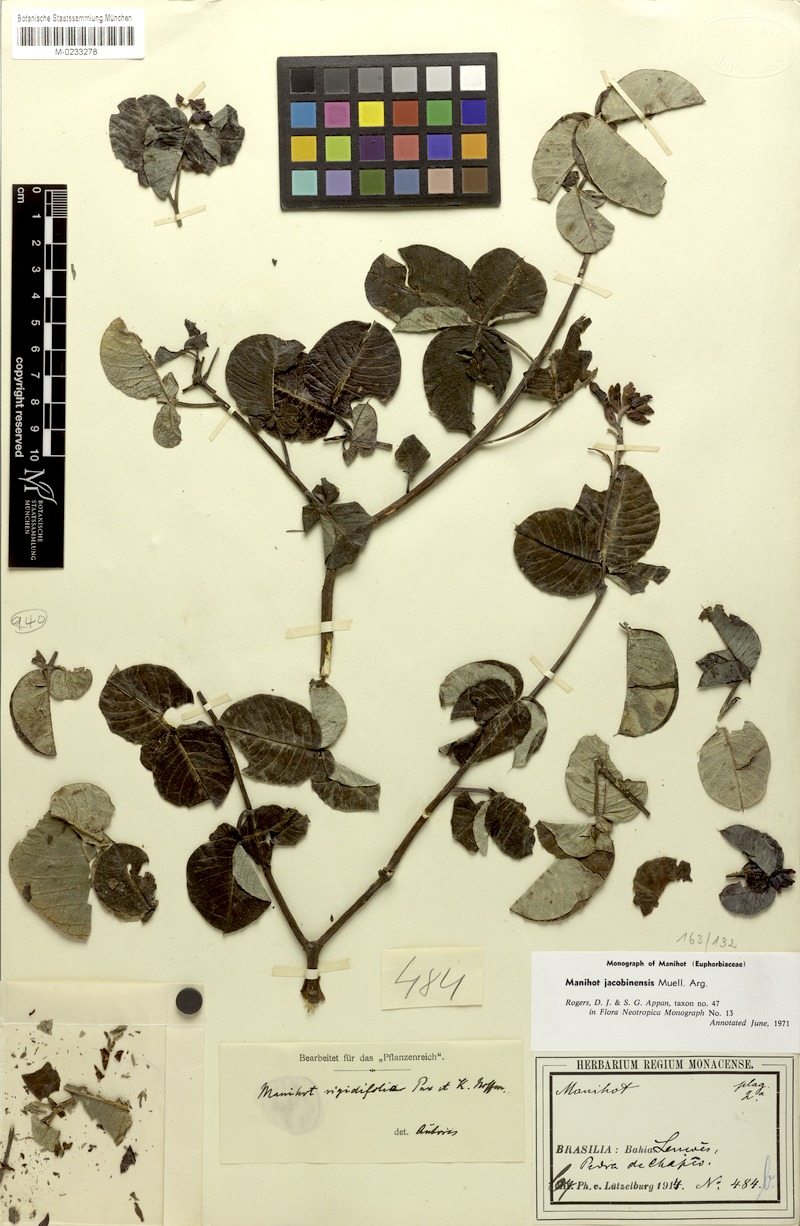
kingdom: Plantae
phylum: Tracheophyta
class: Magnoliopsida
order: Malpighiales
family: Euphorbiaceae
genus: Manihot
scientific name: Manihot jacobinensis
